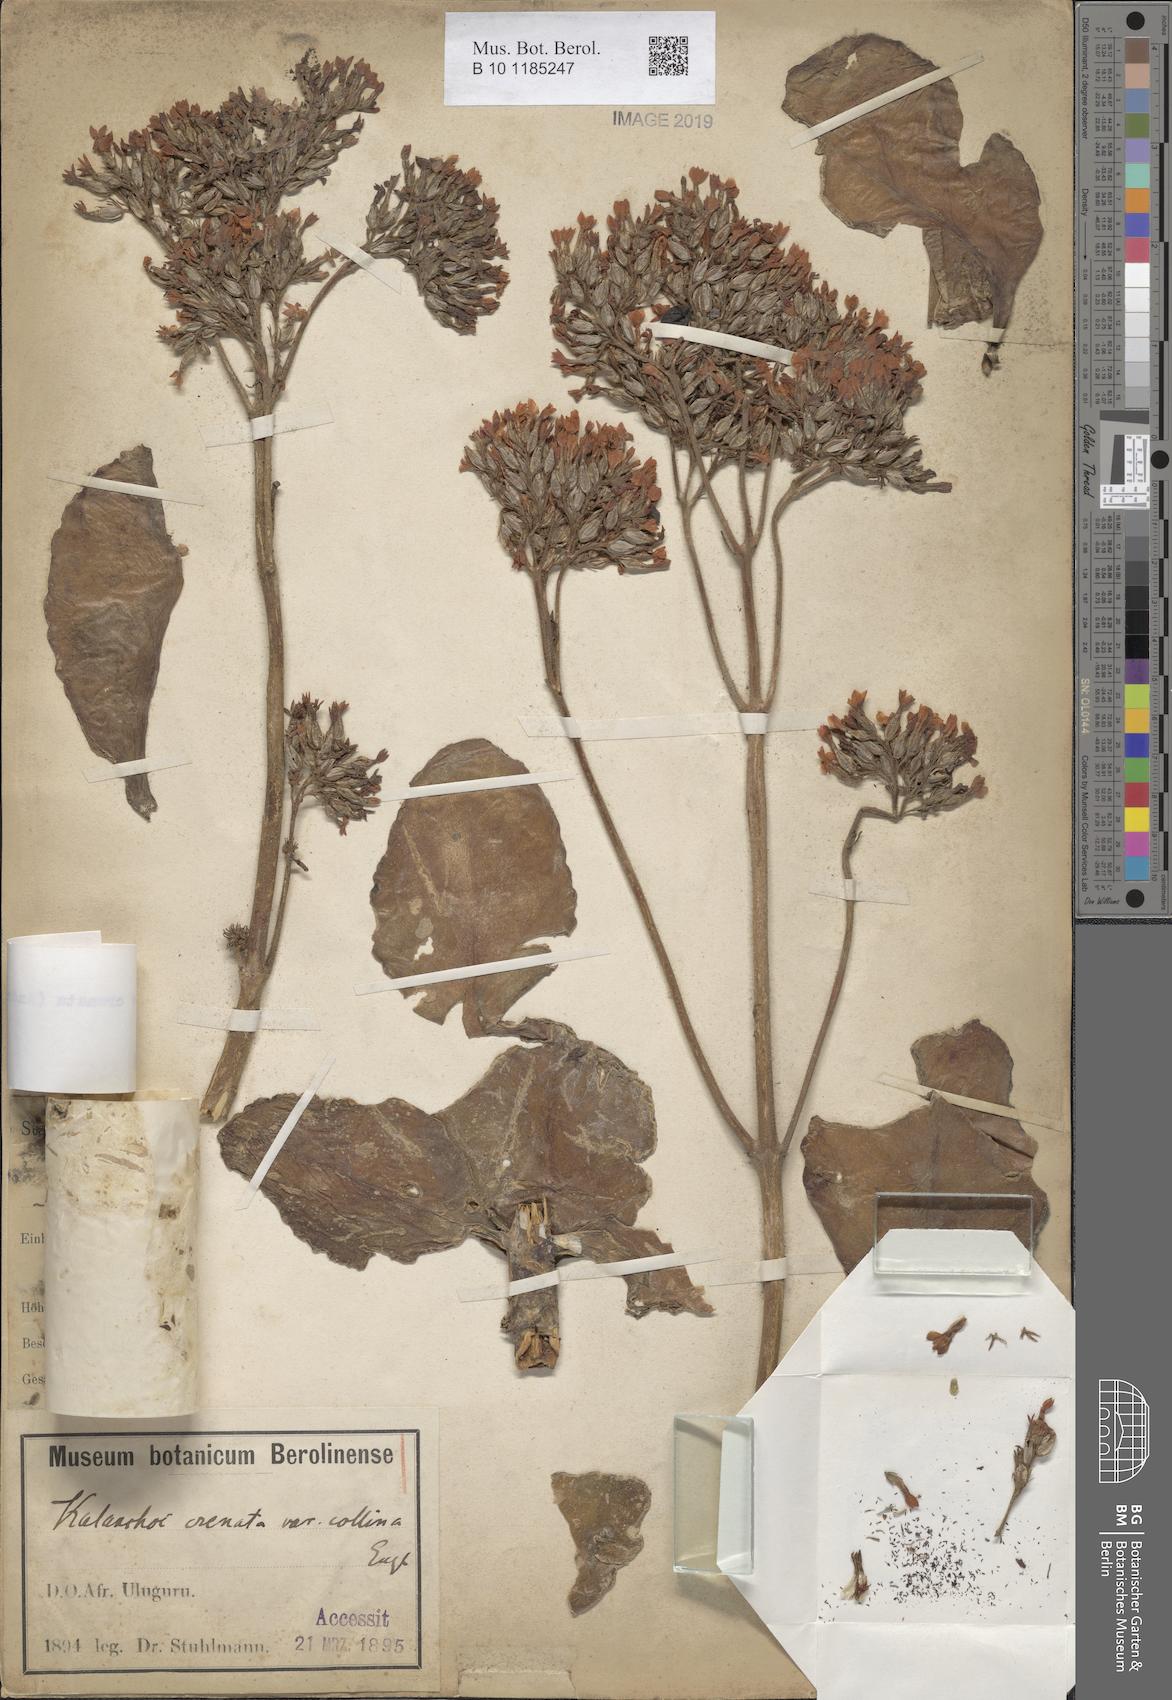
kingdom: Plantae
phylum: Tracheophyta
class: Magnoliopsida
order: Saxifragales
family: Crassulaceae
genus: Kalanchoe
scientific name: Kalanchoe crenata
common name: Neverdie
